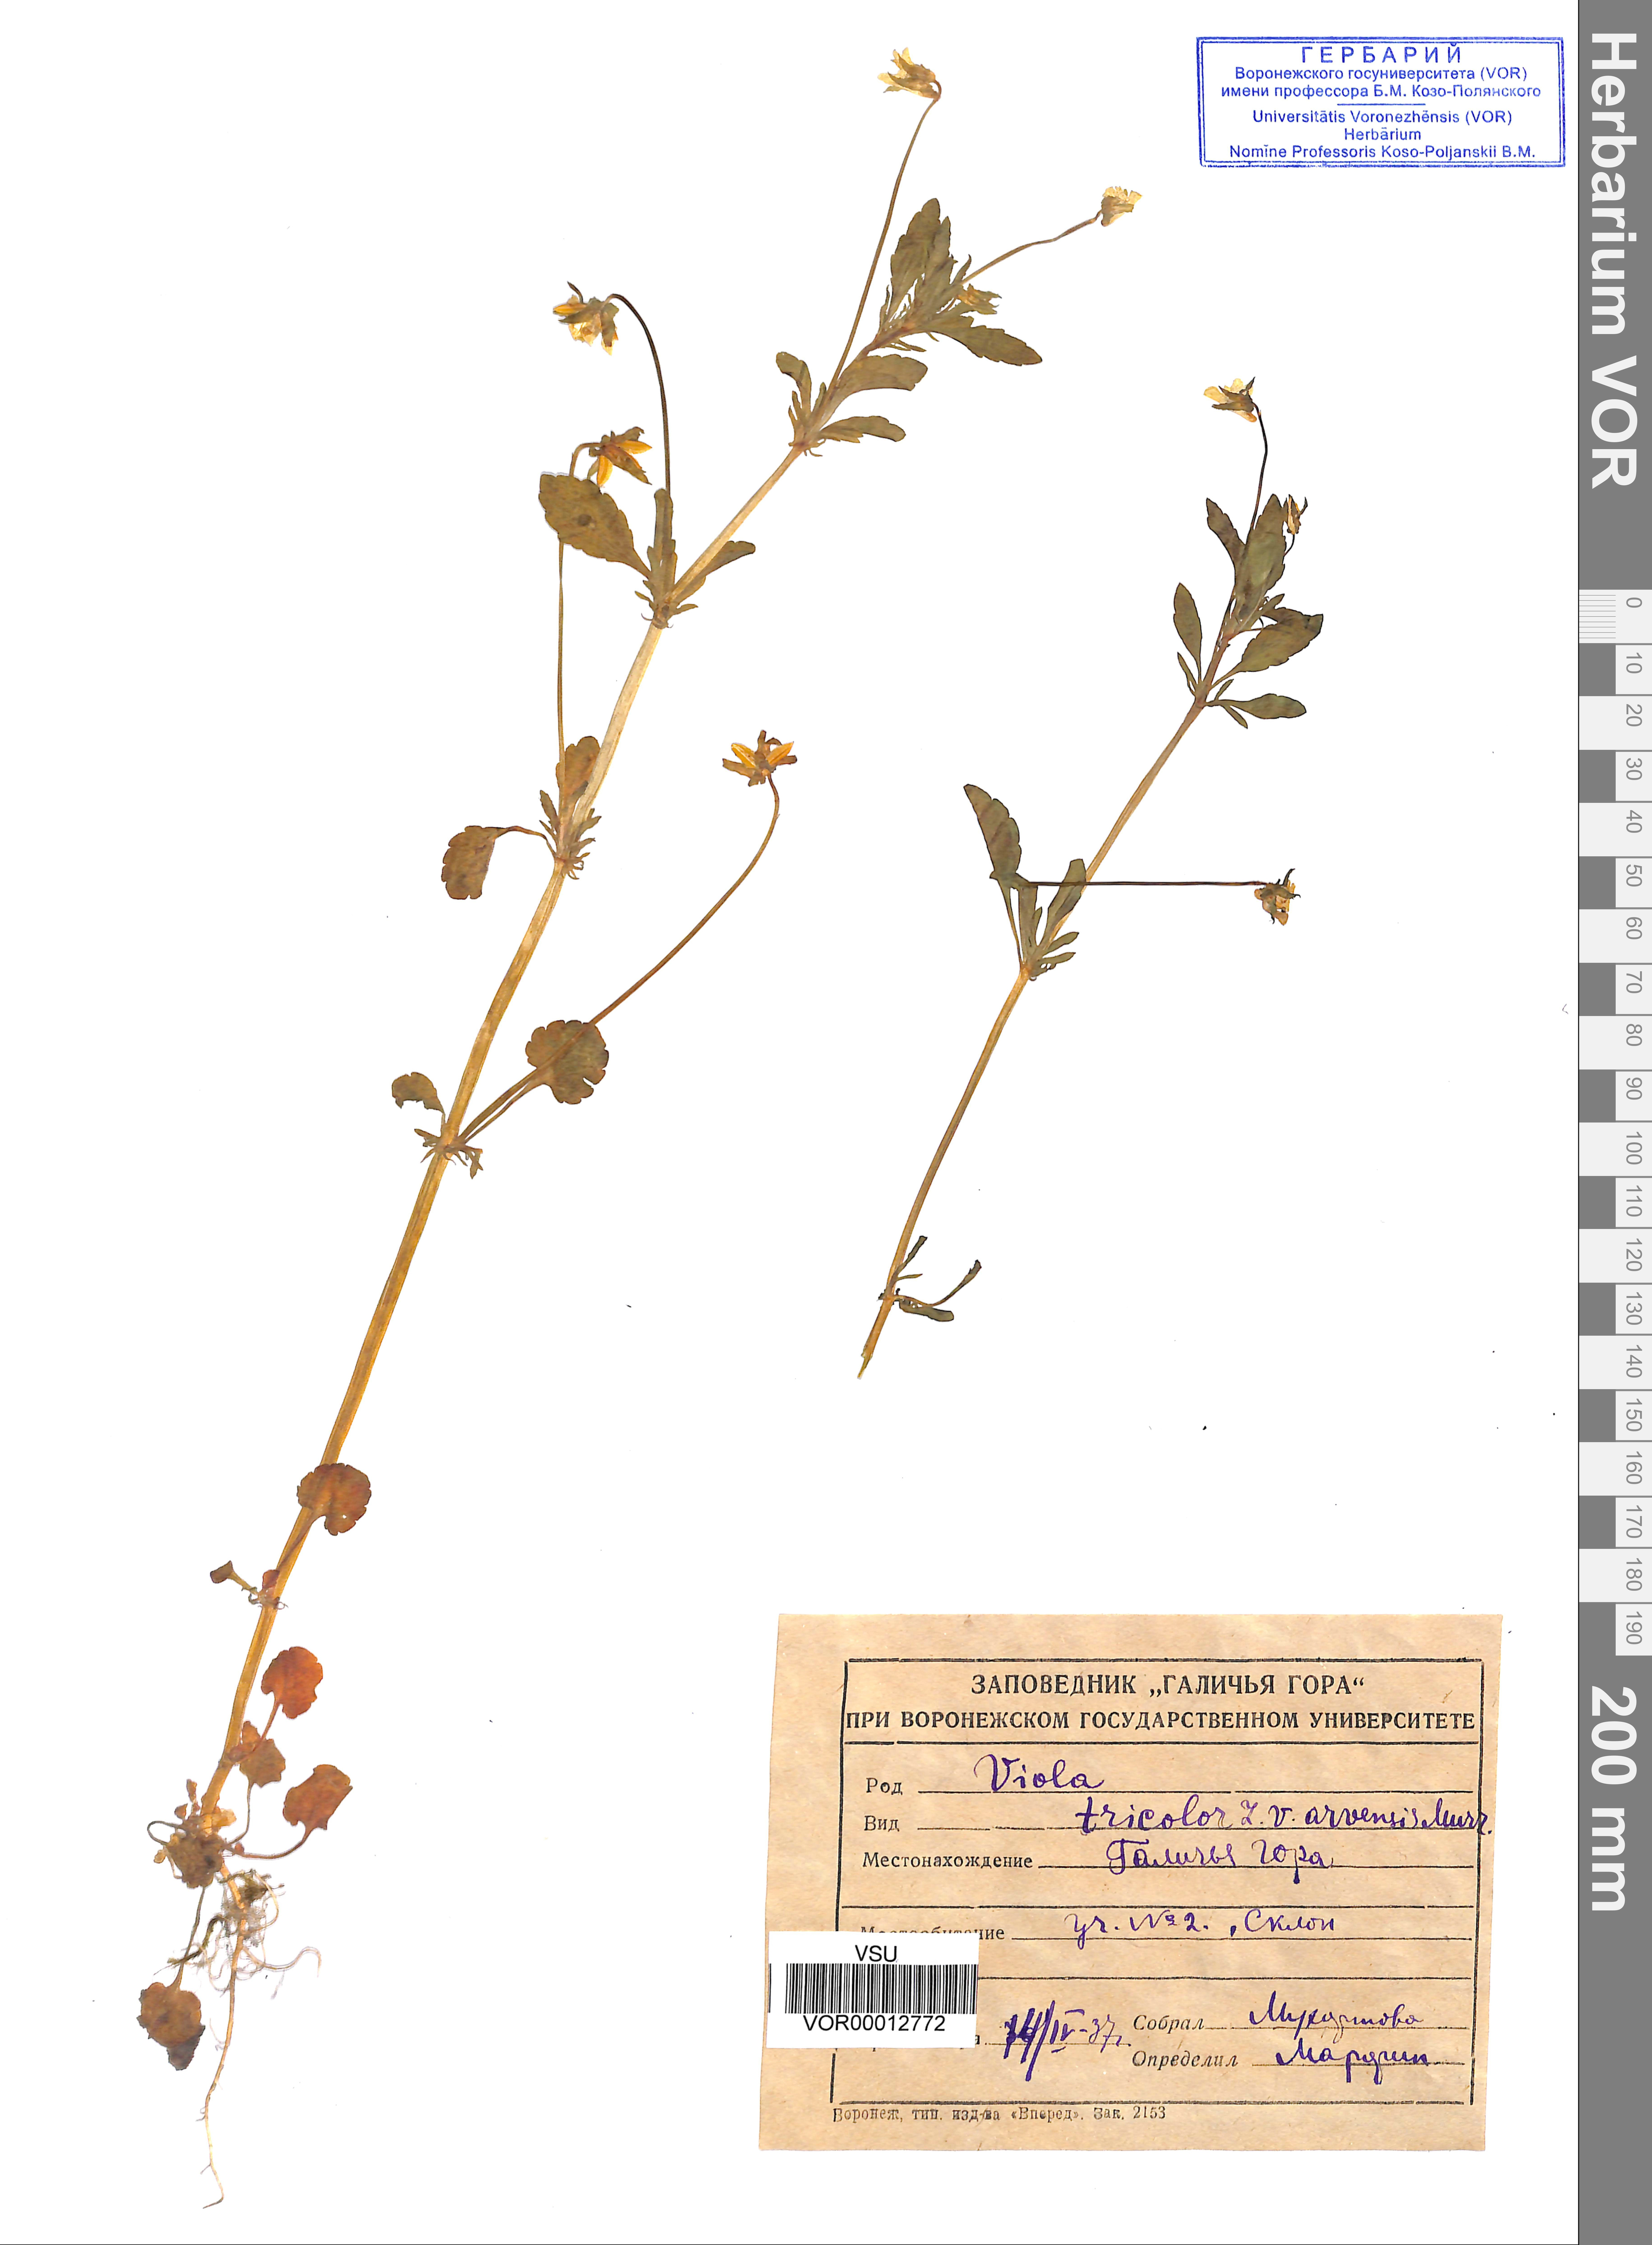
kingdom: Plantae
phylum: Tracheophyta
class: Magnoliopsida
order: Malpighiales
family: Violaceae
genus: Viola
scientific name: Viola tricolor
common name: Pansy
